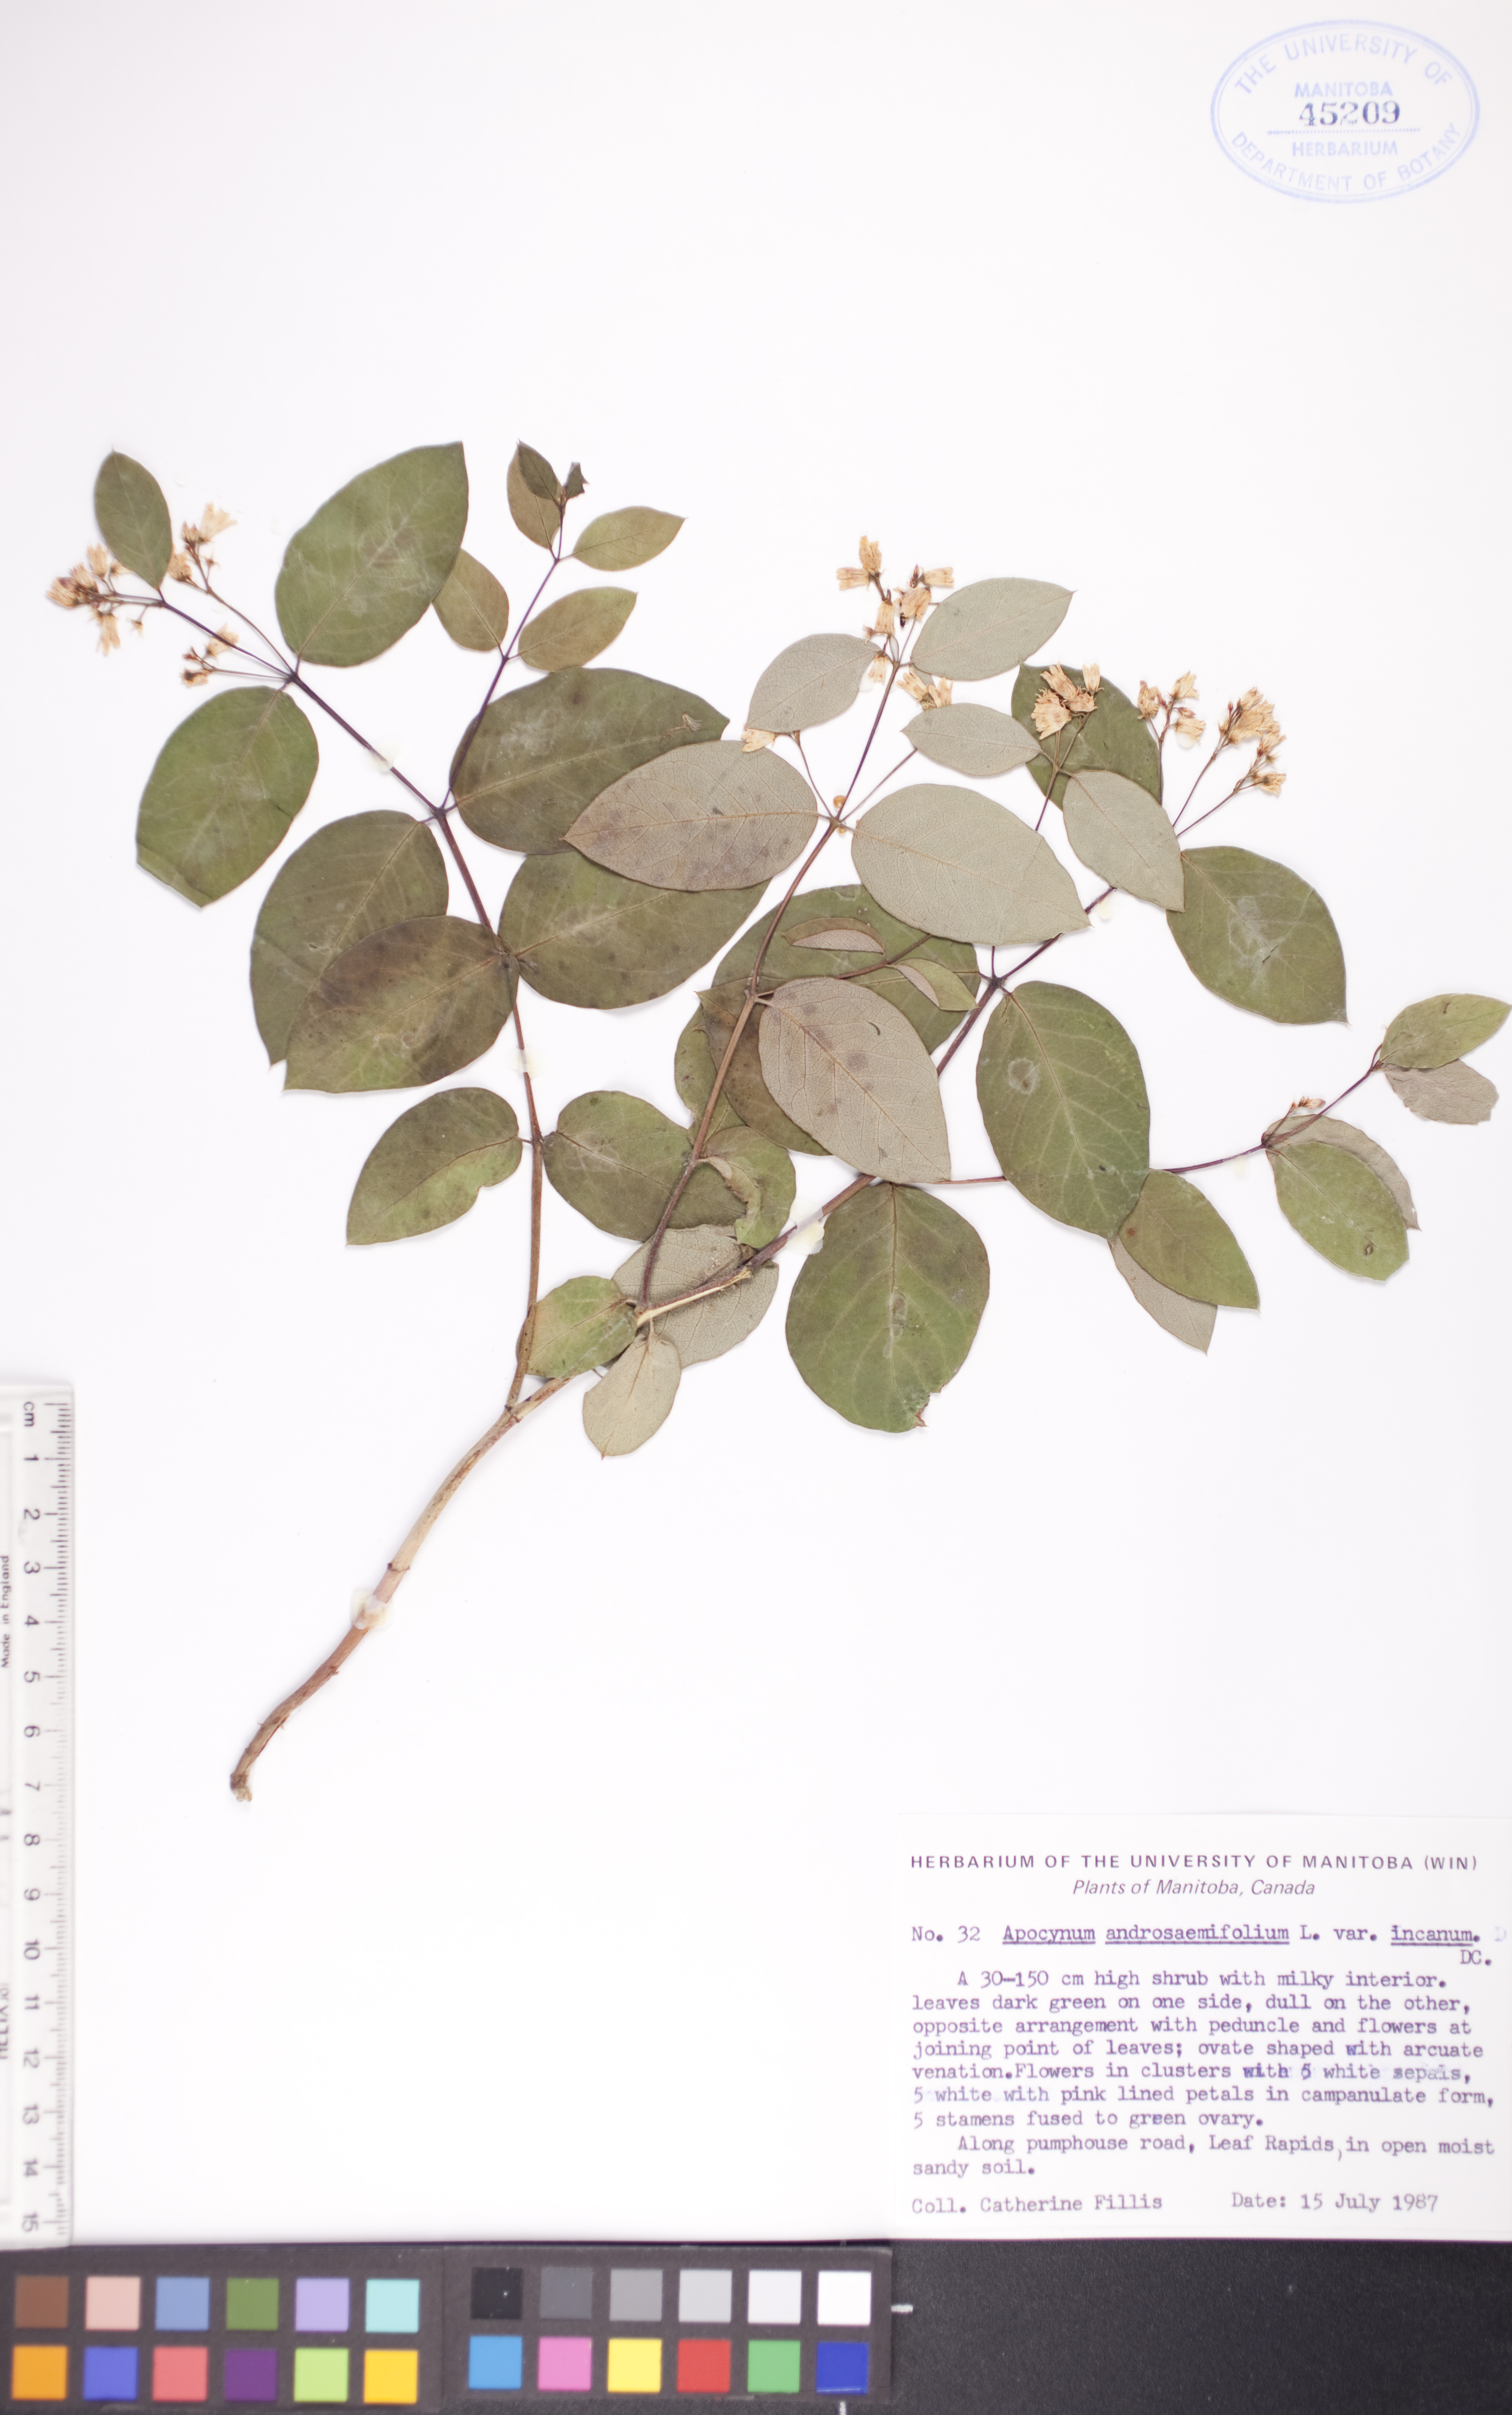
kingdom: Plantae
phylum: Tracheophyta
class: Magnoliopsida
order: Gentianales
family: Apocynaceae
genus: Apocynum
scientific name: Apocynum androsaemifolium
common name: Spreading dogbane
